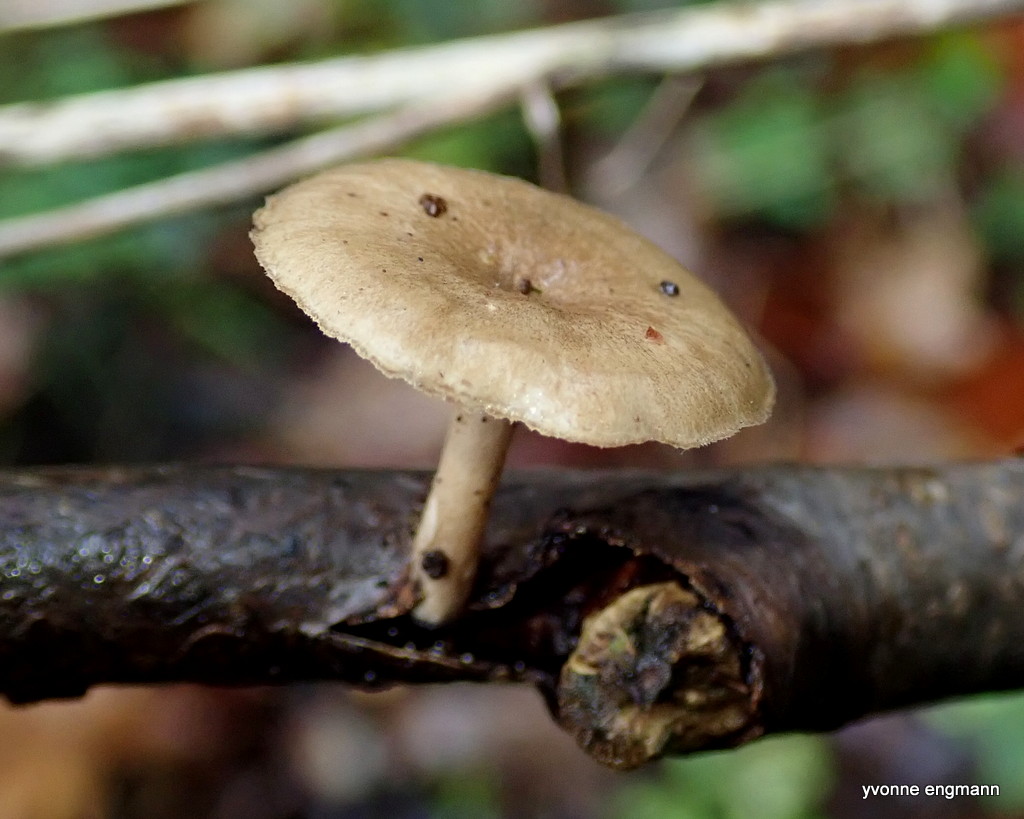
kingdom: Fungi
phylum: Basidiomycota
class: Agaricomycetes
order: Polyporales
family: Polyporaceae
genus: Lentinus
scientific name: Lentinus brumalis
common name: vinter-stilkporesvamp
